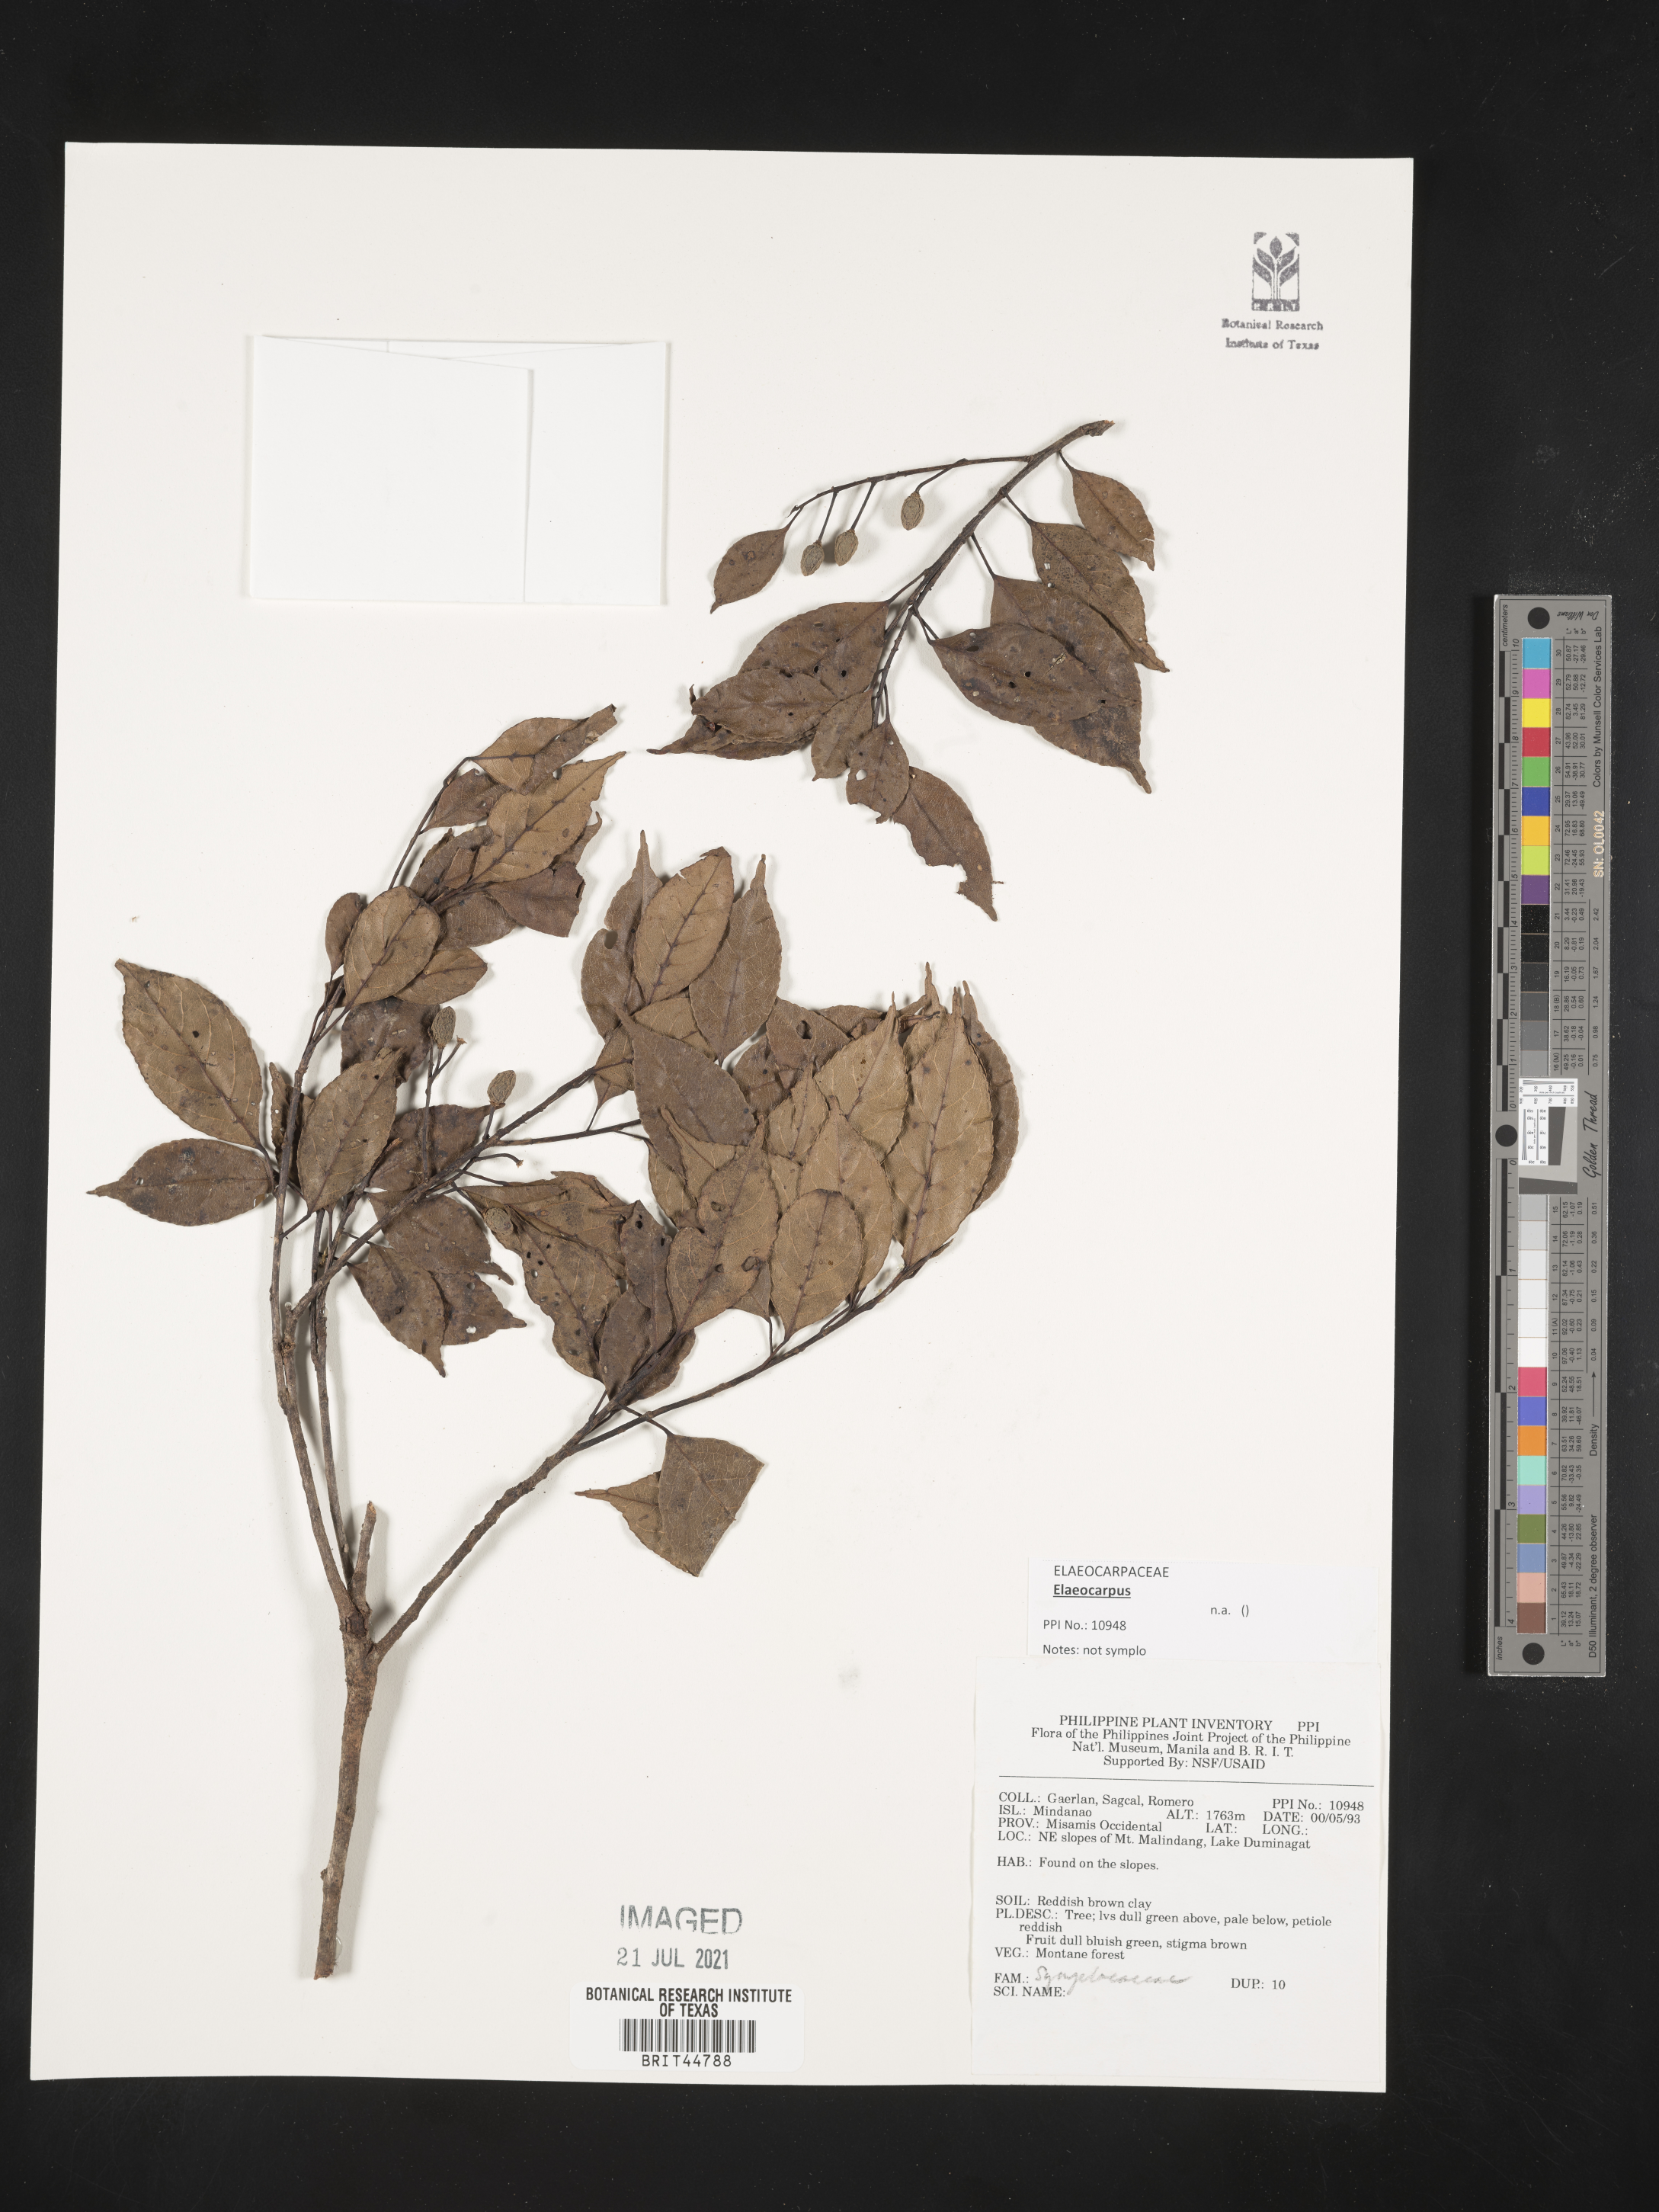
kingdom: Plantae
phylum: Tracheophyta
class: Magnoliopsida
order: Ericales
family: Symplocaceae
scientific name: Symplocaceae
